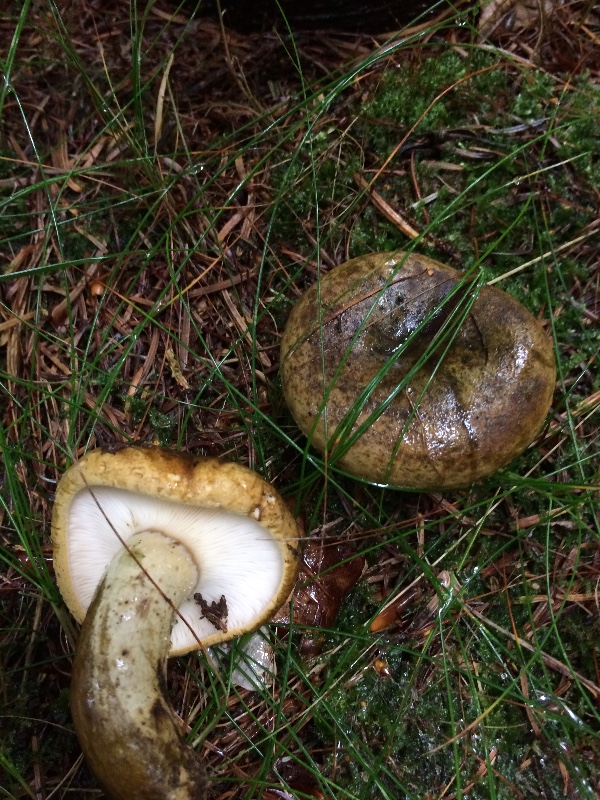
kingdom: Fungi
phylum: Basidiomycota
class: Agaricomycetes
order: Russulales
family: Russulaceae
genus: Lactarius
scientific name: Lactarius necator
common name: manddraber-mælkehat
